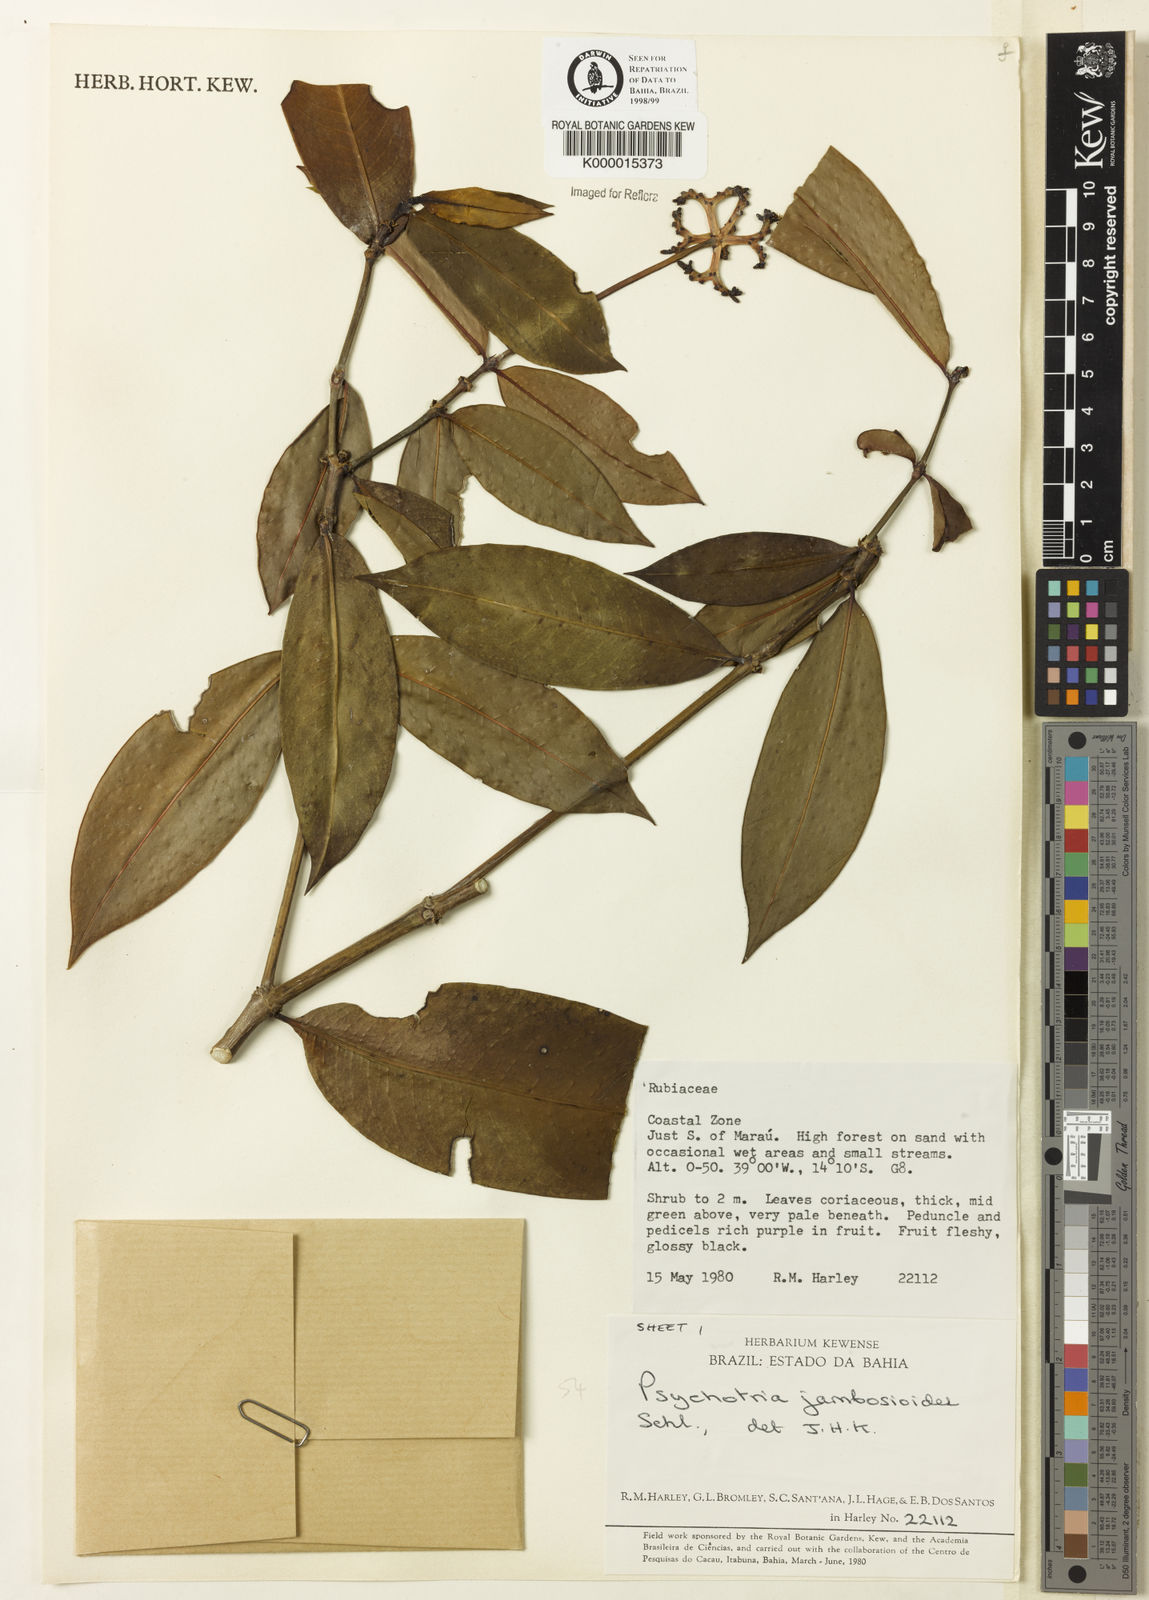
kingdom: Plantae
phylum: Tracheophyta
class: Magnoliopsida
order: Gentianales
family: Rubiaceae
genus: Palicourea
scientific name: Palicourea jambosioides
